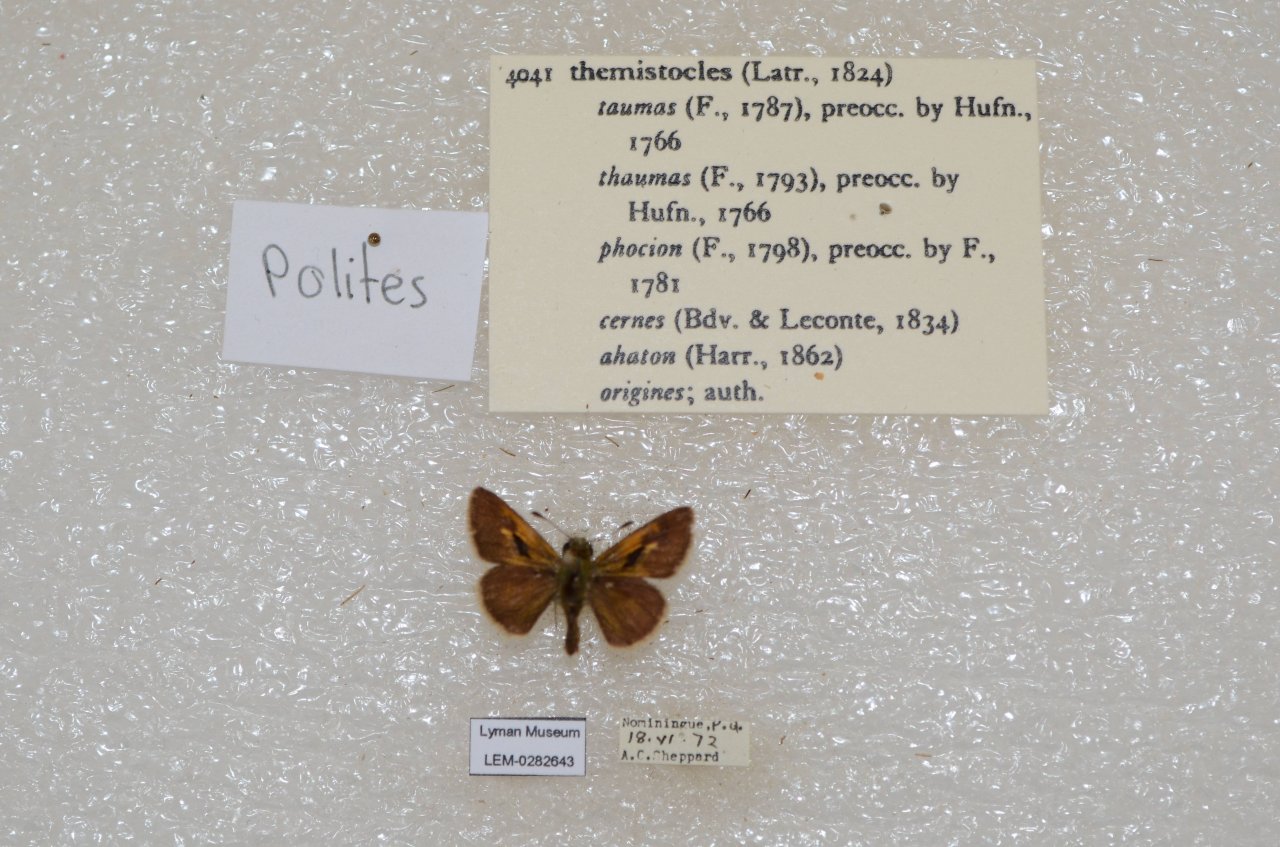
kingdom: Animalia
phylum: Arthropoda
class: Insecta
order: Lepidoptera
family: Hesperiidae
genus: Polites
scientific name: Polites themistocles
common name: Tawny-edged Skipper
